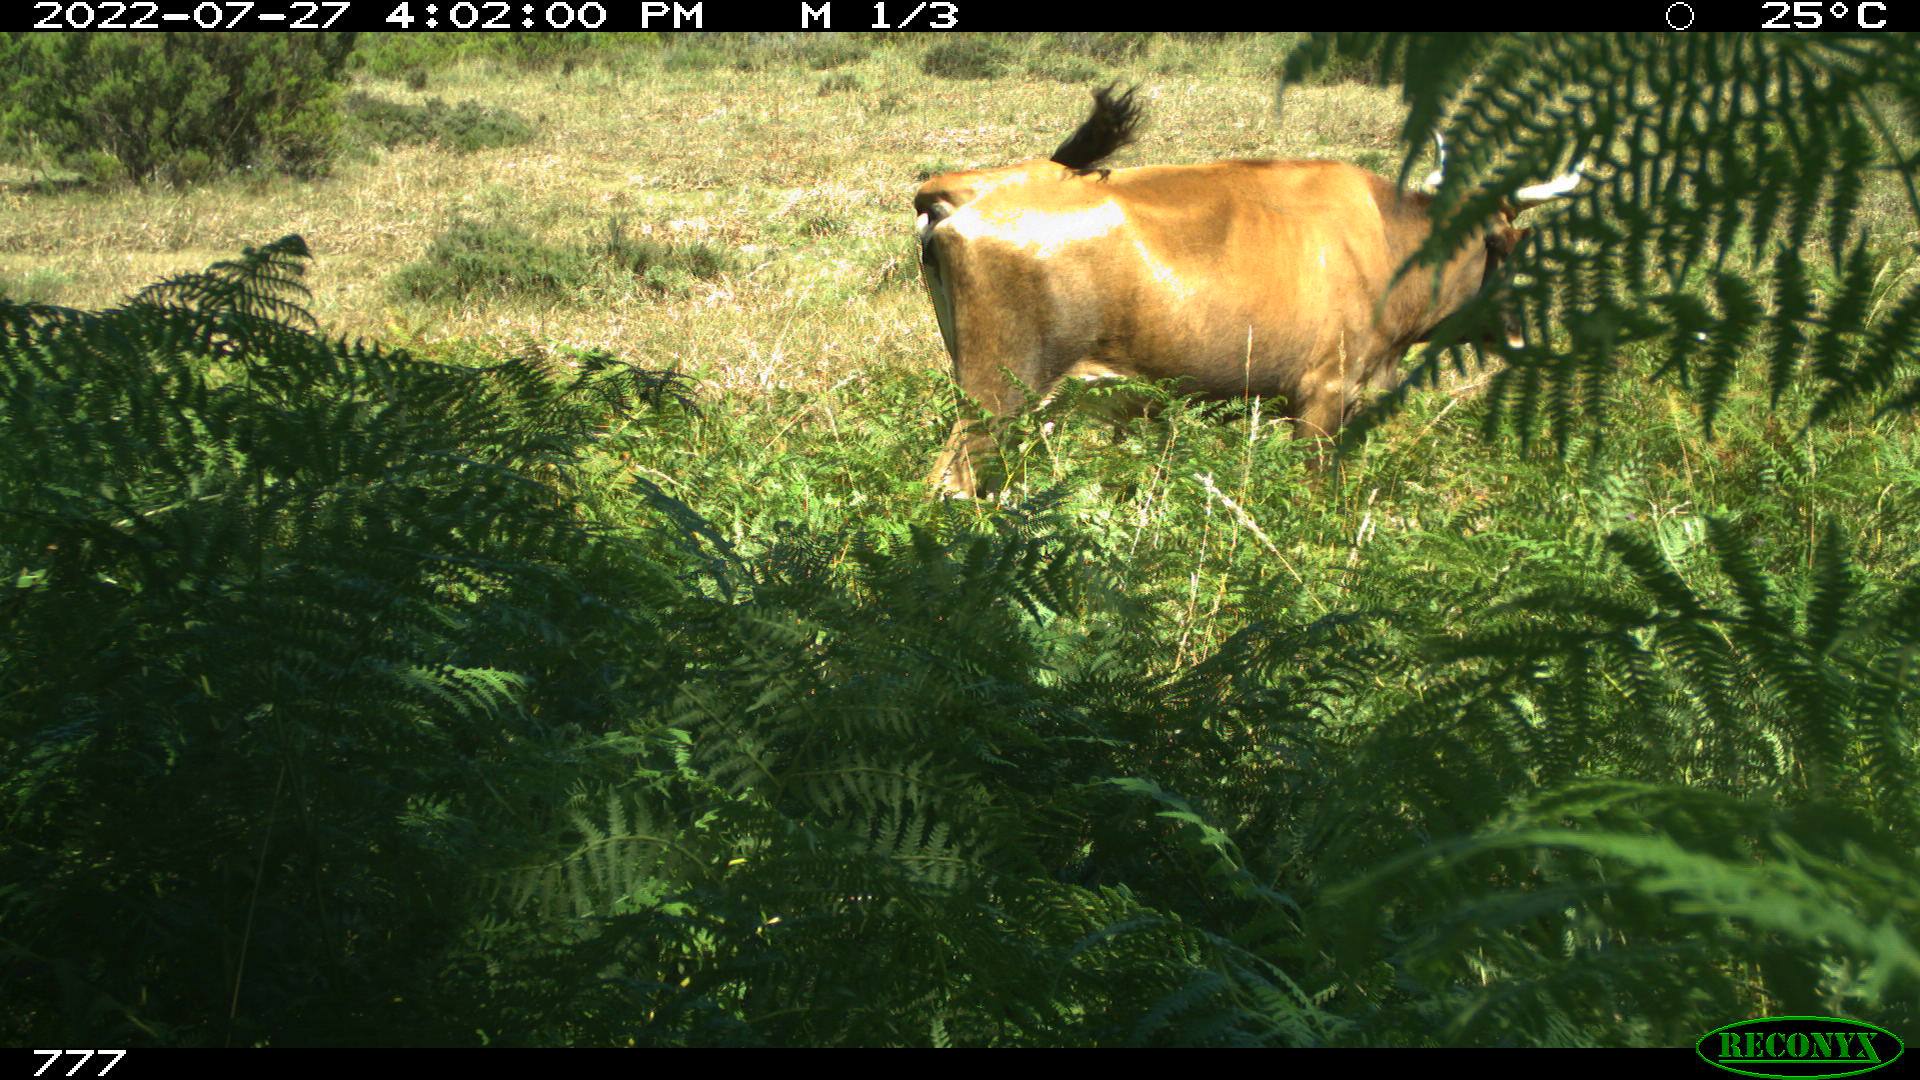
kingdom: Animalia
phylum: Chordata
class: Mammalia
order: Artiodactyla
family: Bovidae
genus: Bos
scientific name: Bos taurus
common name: Domesticated cattle
